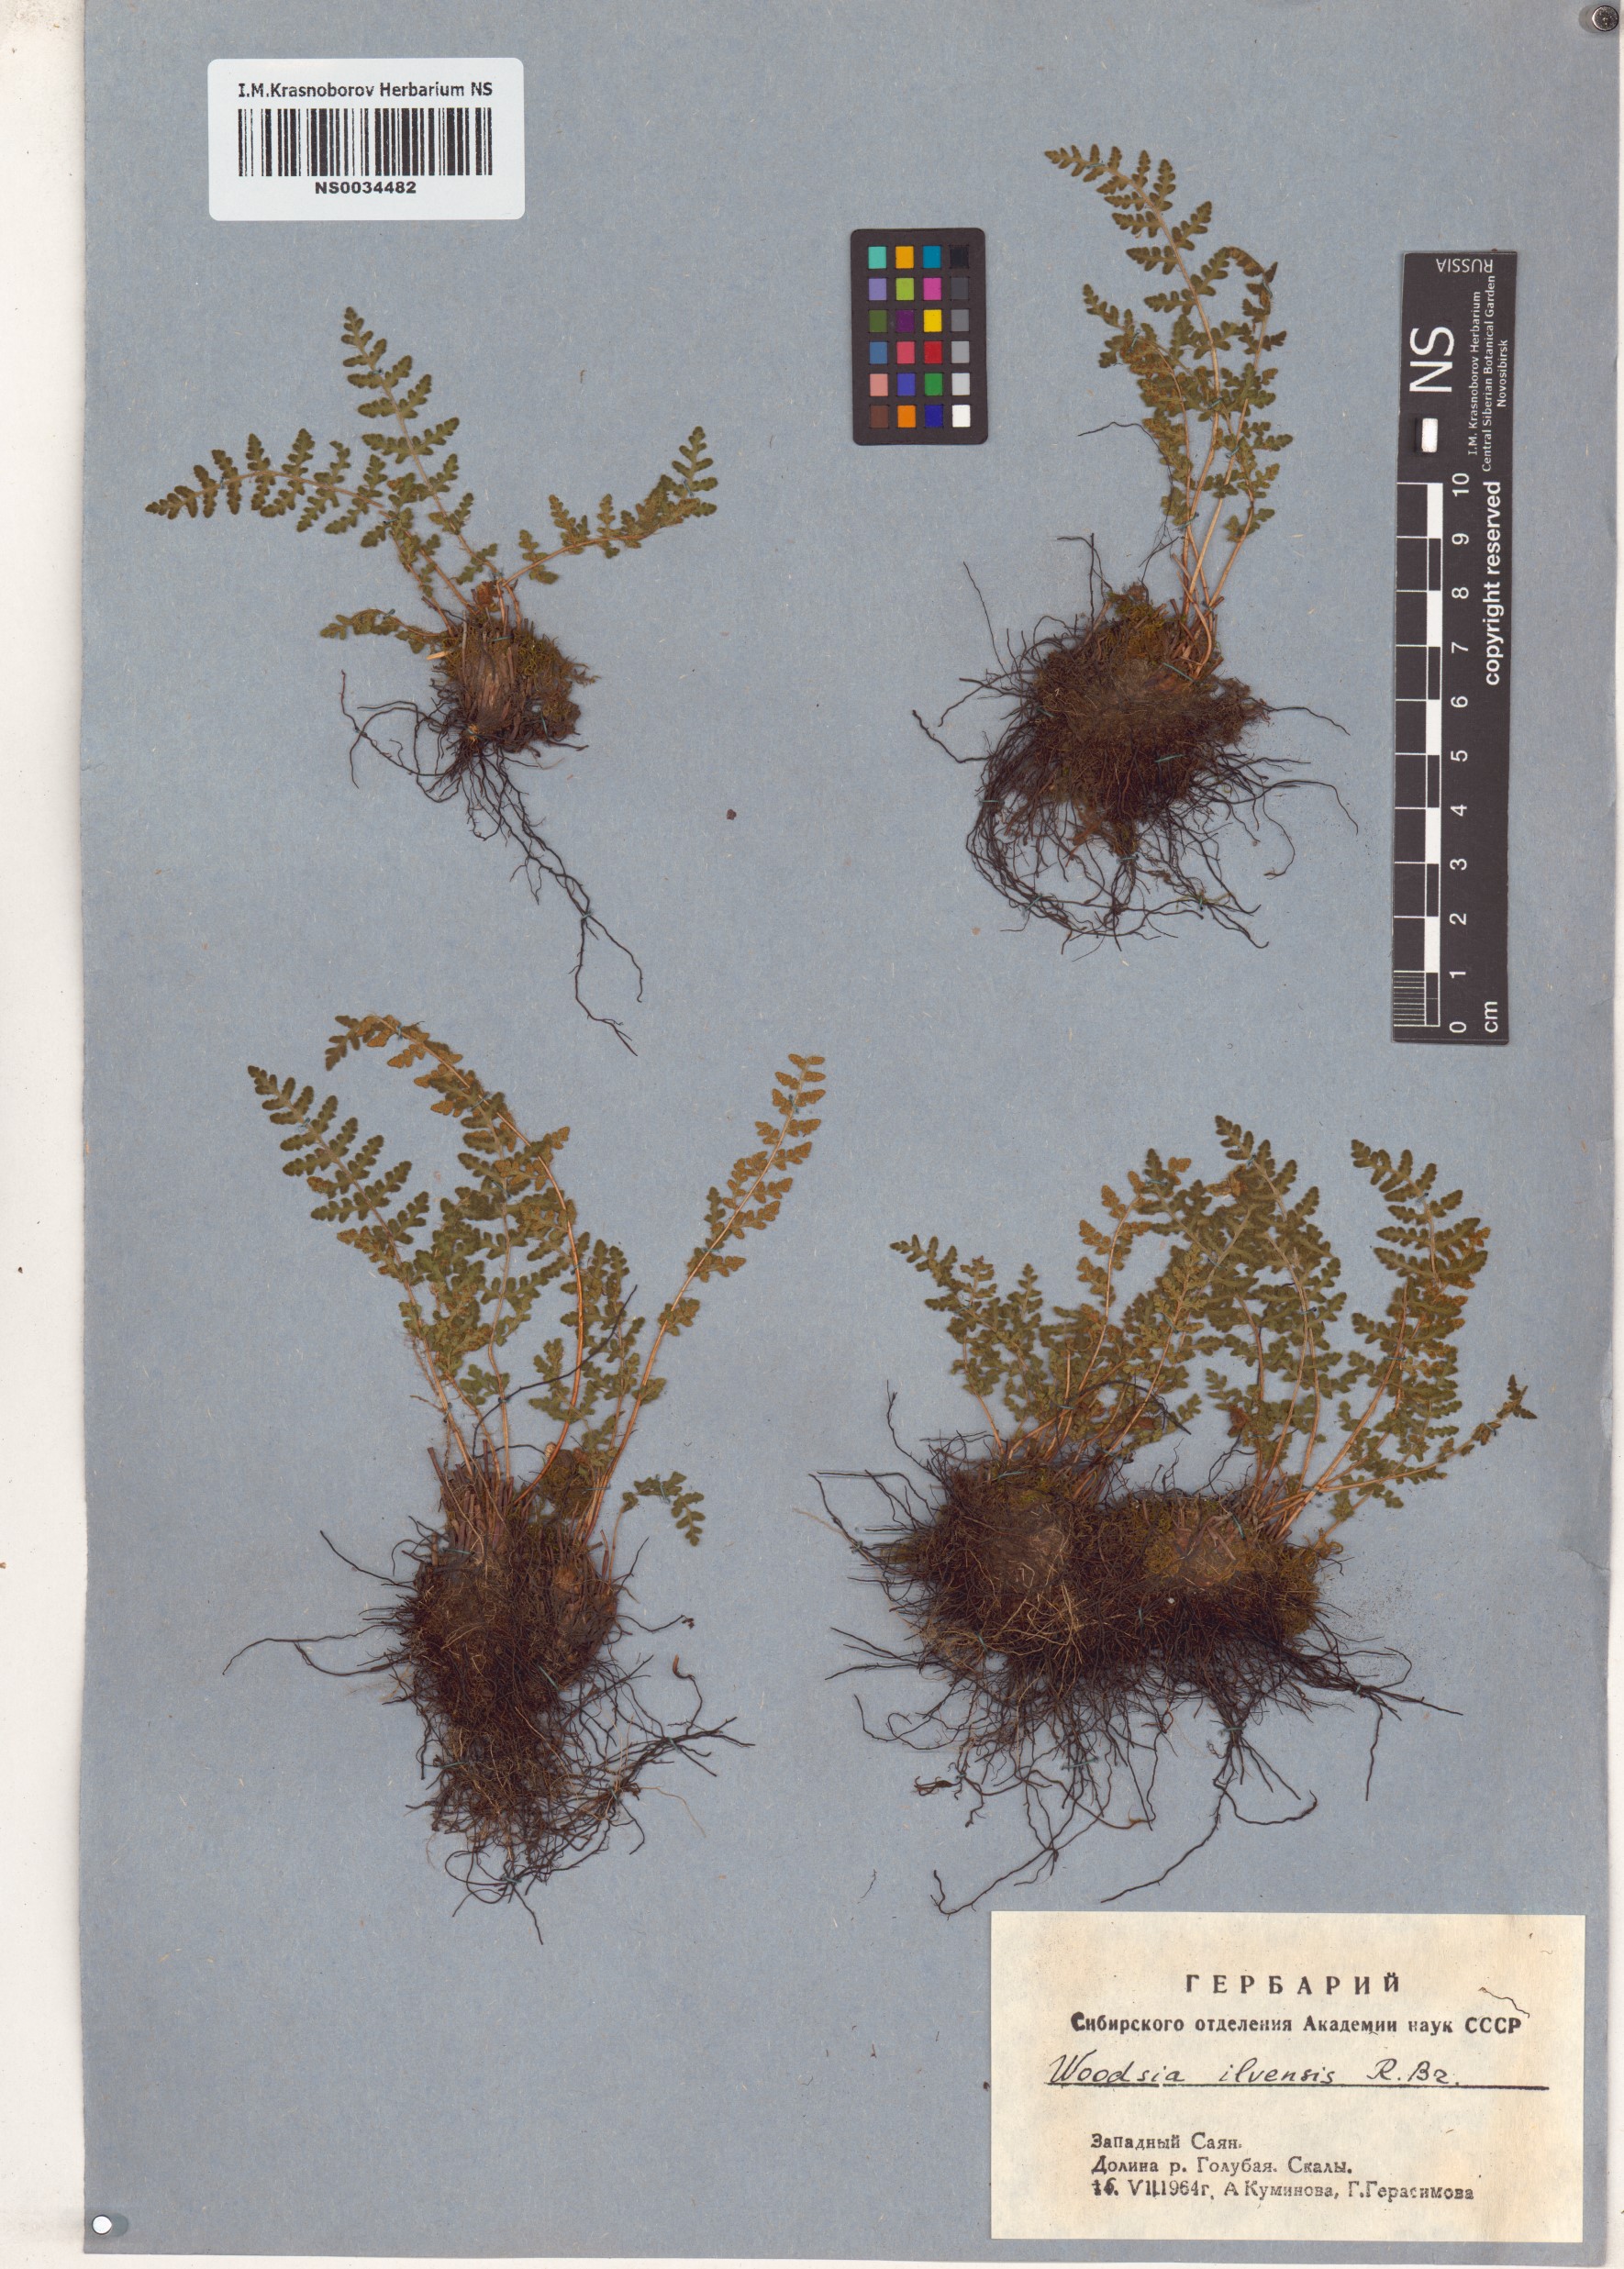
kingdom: Plantae
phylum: Tracheophyta
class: Polypodiopsida
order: Polypodiales
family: Woodsiaceae
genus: Woodsia
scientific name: Woodsia ilvensis
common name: Fragrant woodsia
